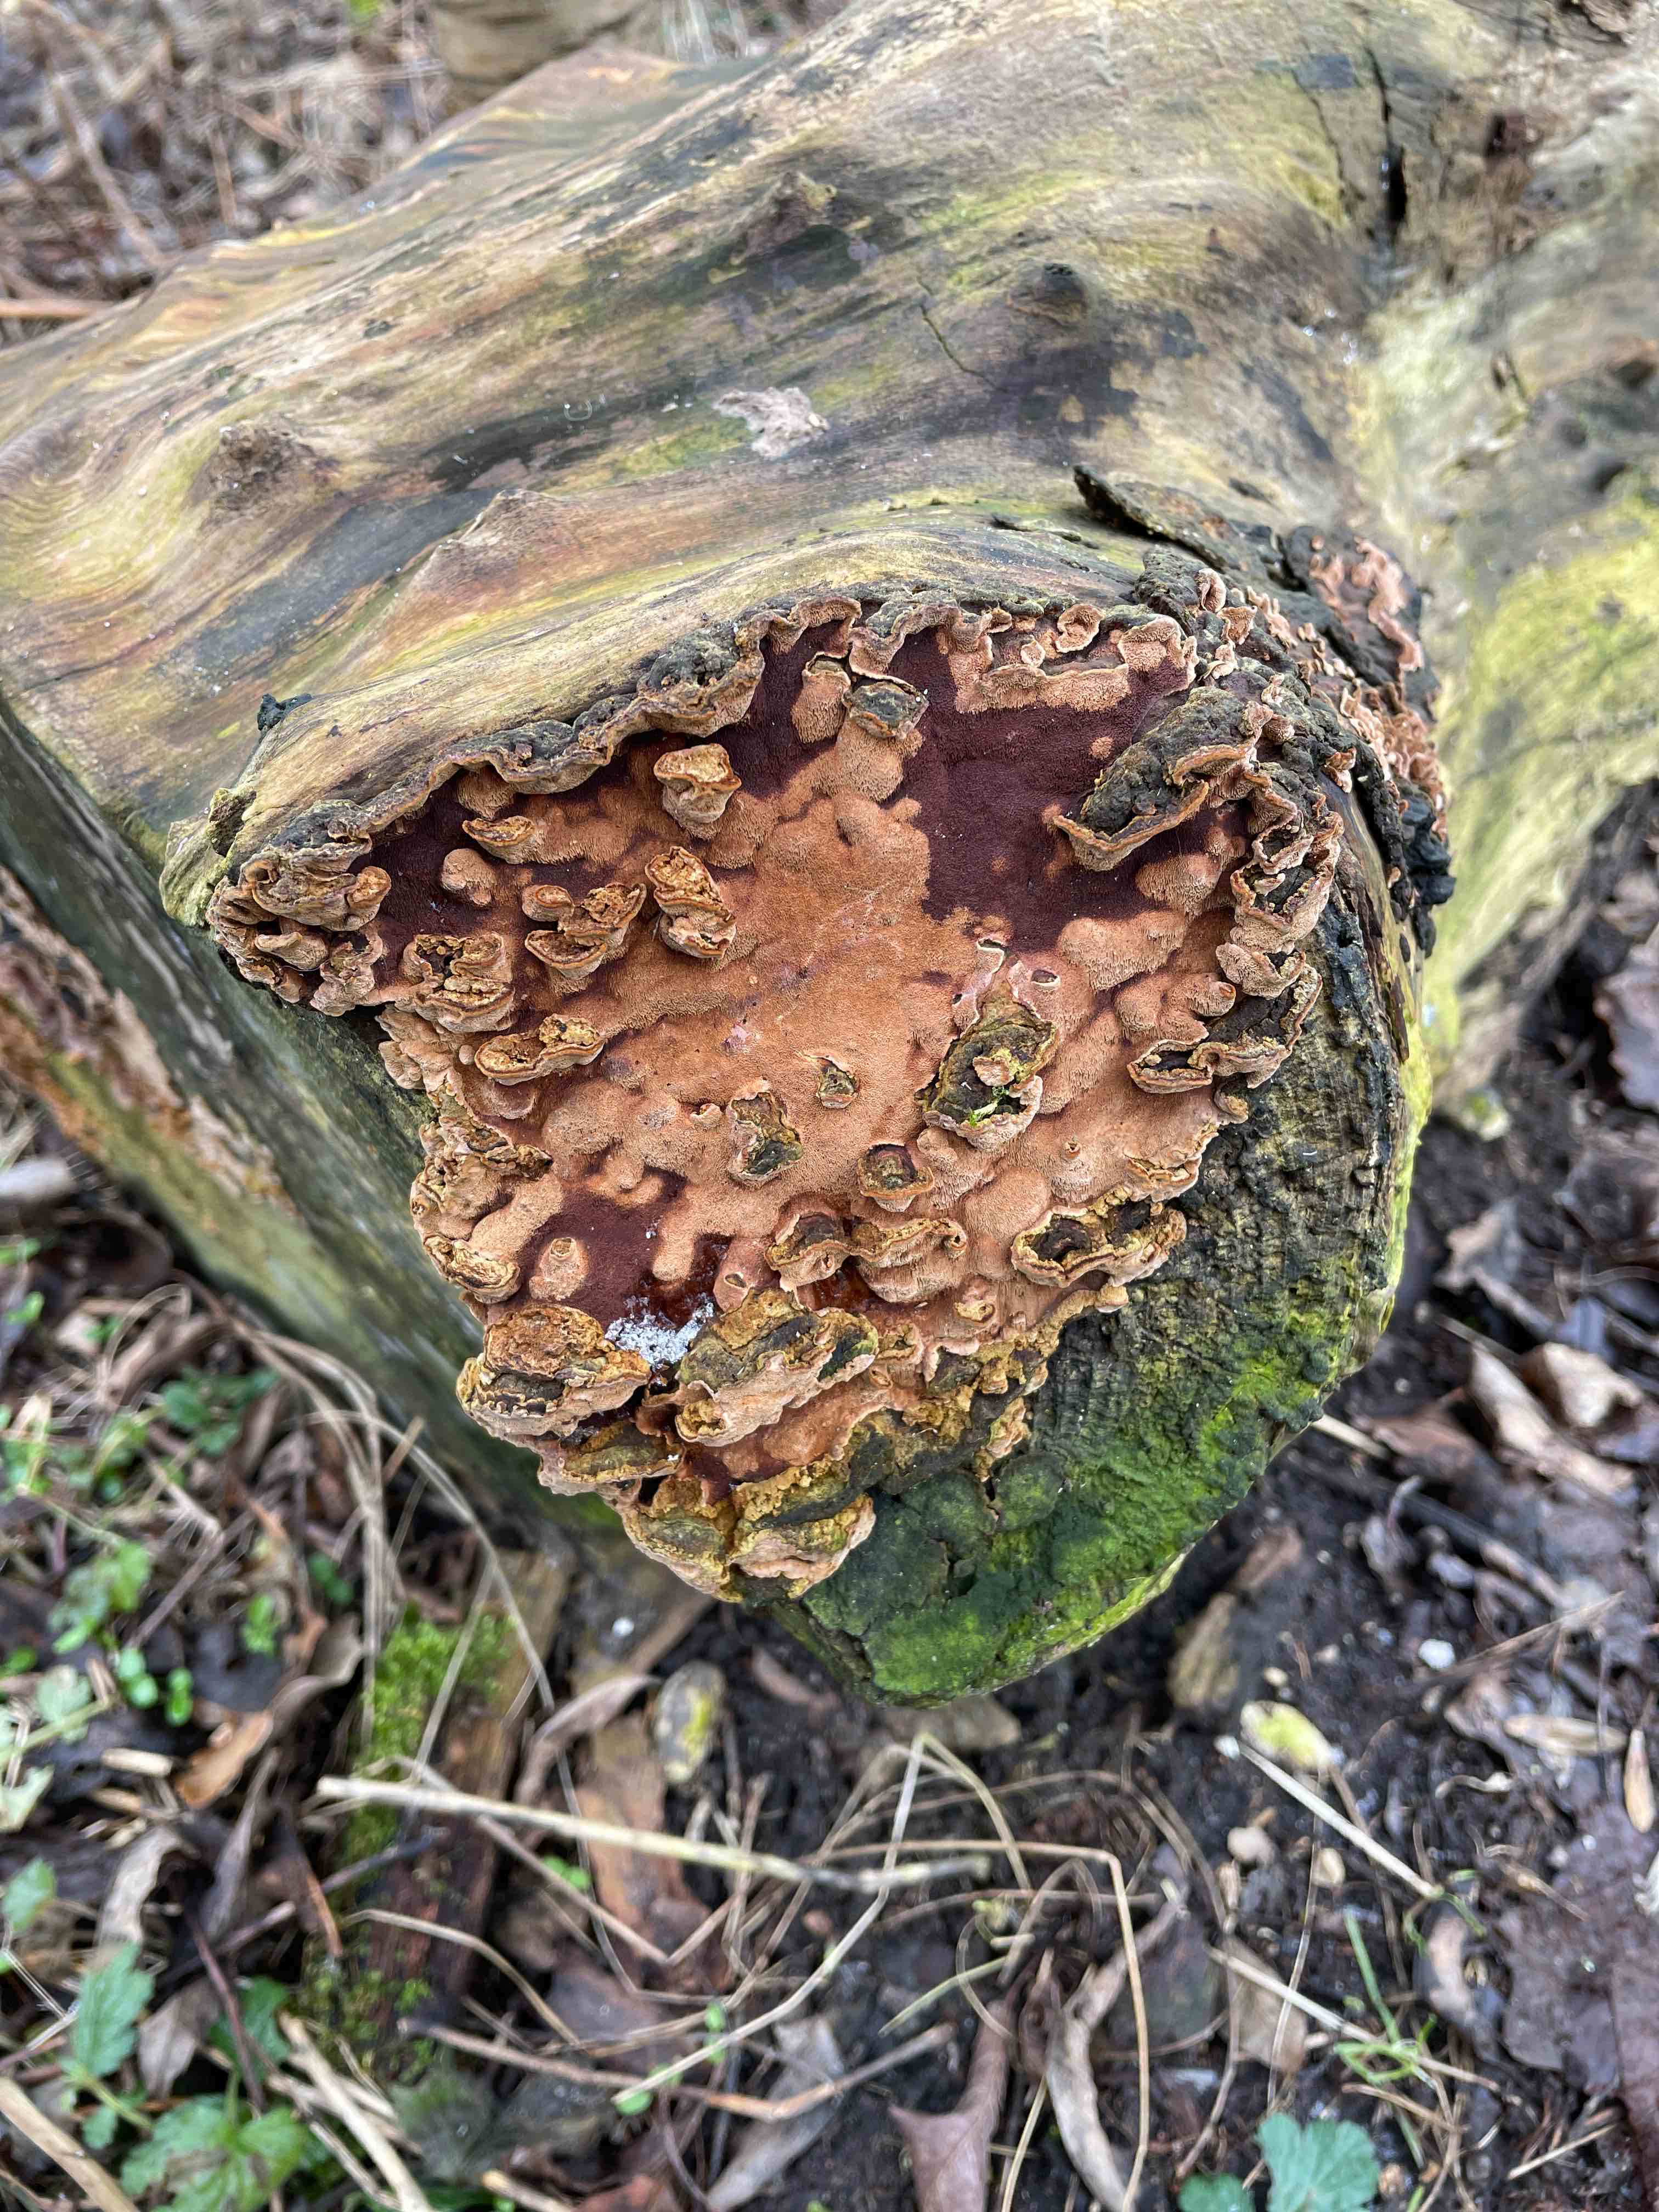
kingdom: Fungi
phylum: Basidiomycota
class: Agaricomycetes
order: Hymenochaetales
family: Hymenochaetaceae
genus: Phellinopsis
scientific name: Phellinopsis conchata
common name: pile-ildporesvamp
